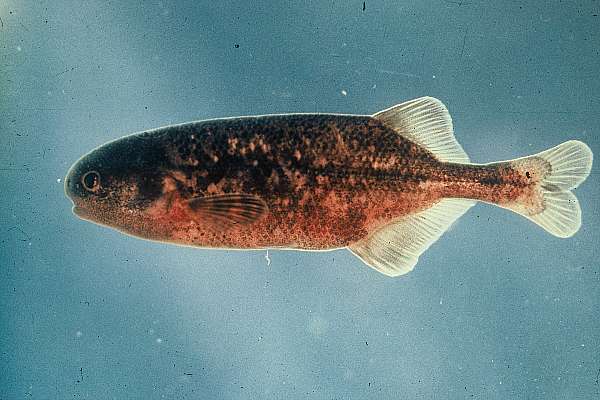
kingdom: Animalia
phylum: Chordata
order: Osteoglossiformes
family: Mormyridae
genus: Pollimyrus
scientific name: Pollimyrus castelnaui
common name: Dwarf stonebasher
